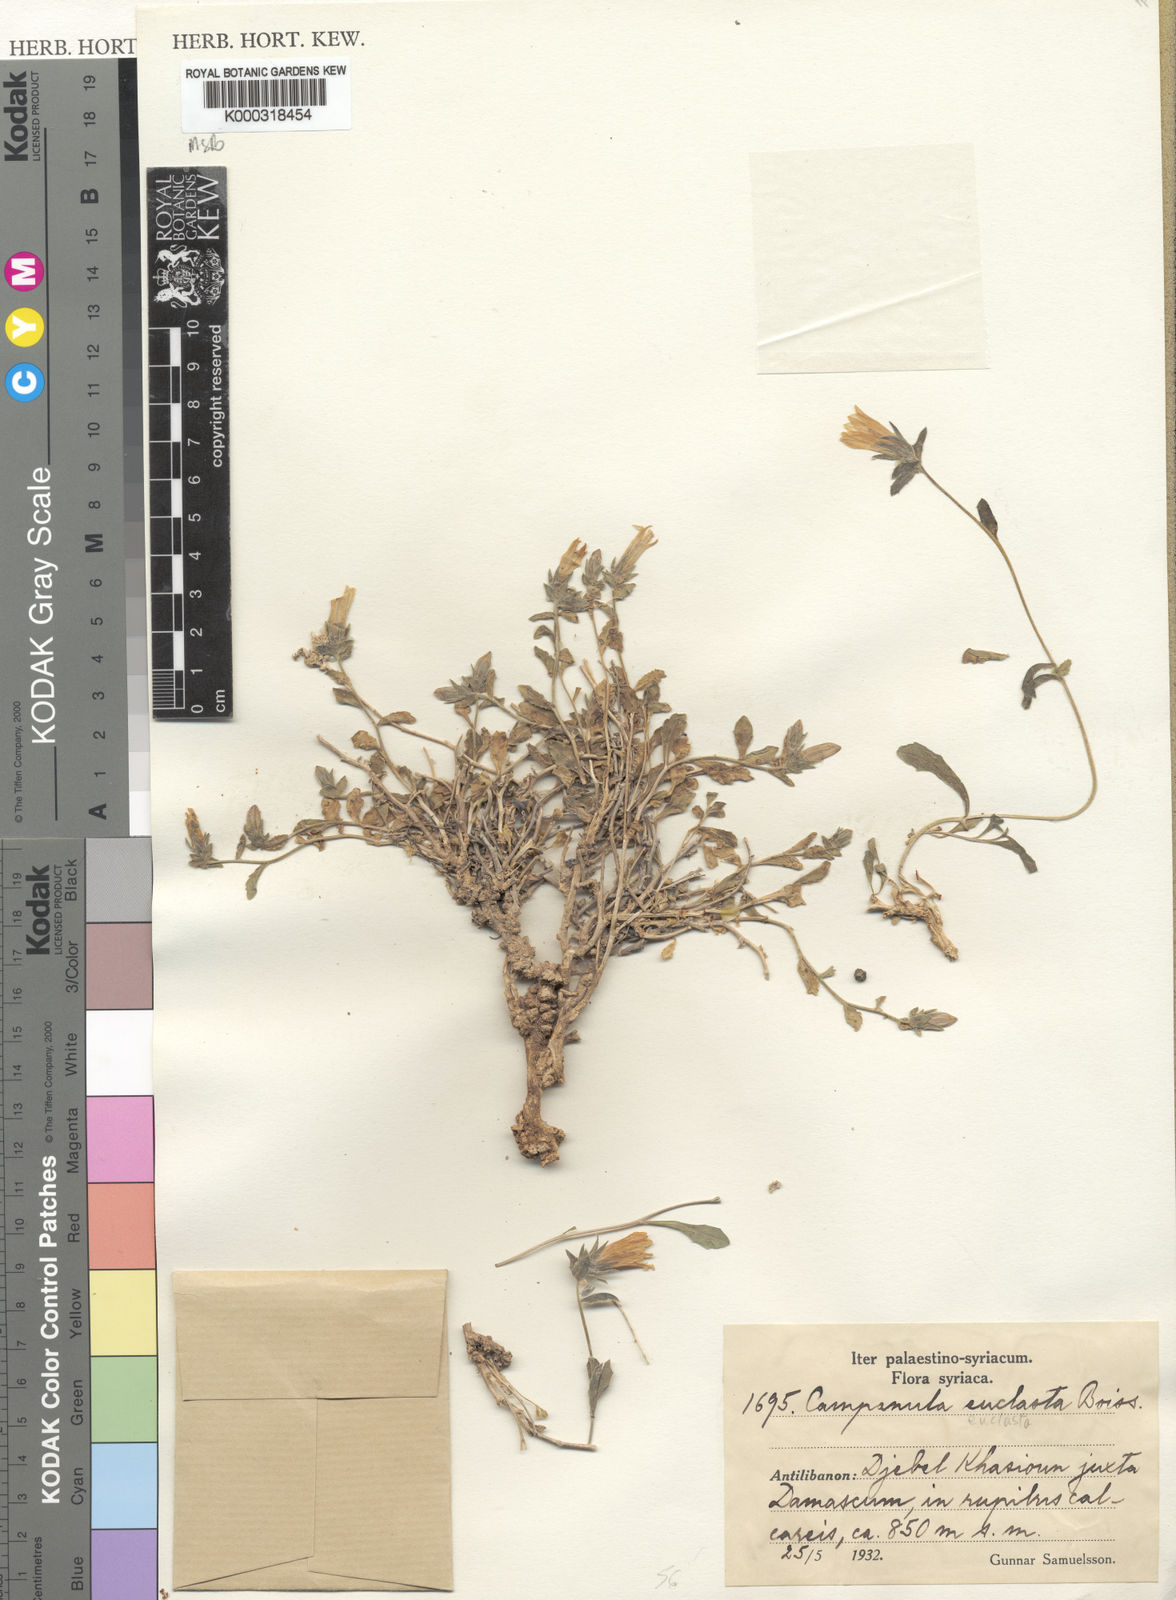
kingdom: Plantae
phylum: Tracheophyta
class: Magnoliopsida
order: Asterales
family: Campanulaceae
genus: Campanula
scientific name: Campanula euclasta
